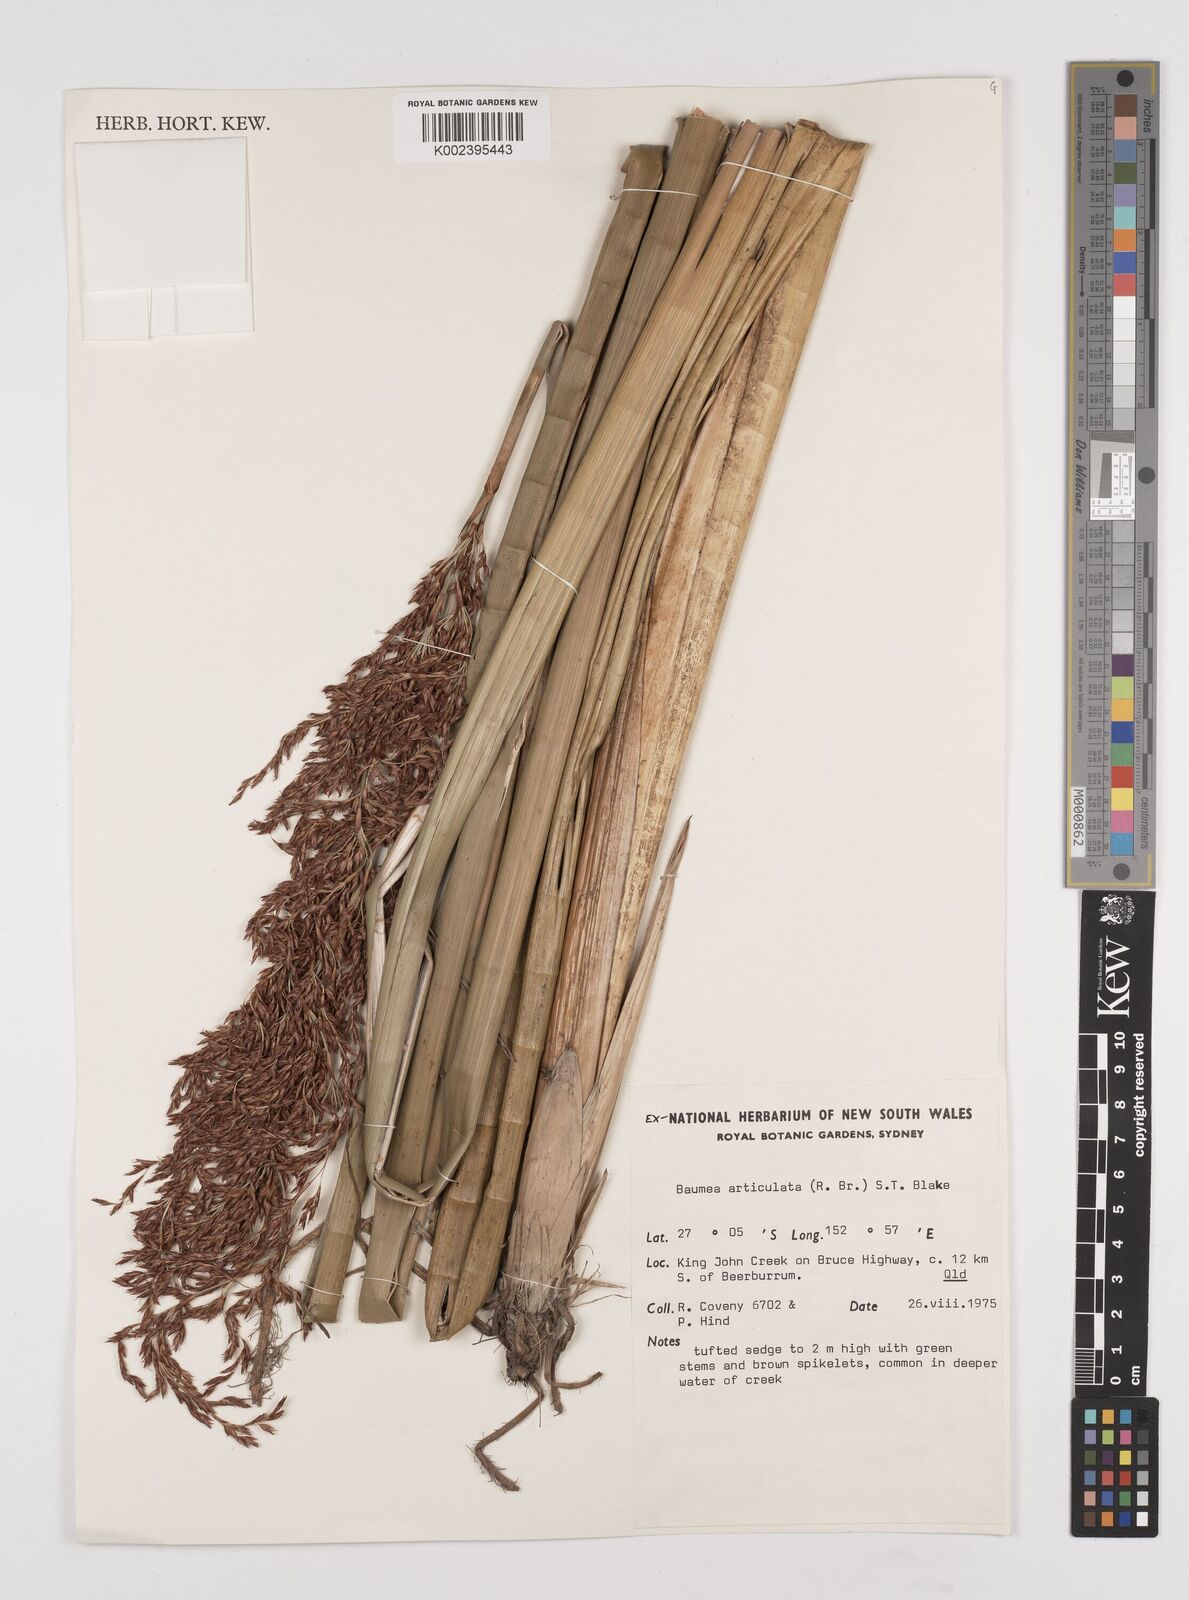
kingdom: Plantae
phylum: Tracheophyta
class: Liliopsida
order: Poales
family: Cyperaceae
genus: Machaerina
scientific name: Machaerina articulata
